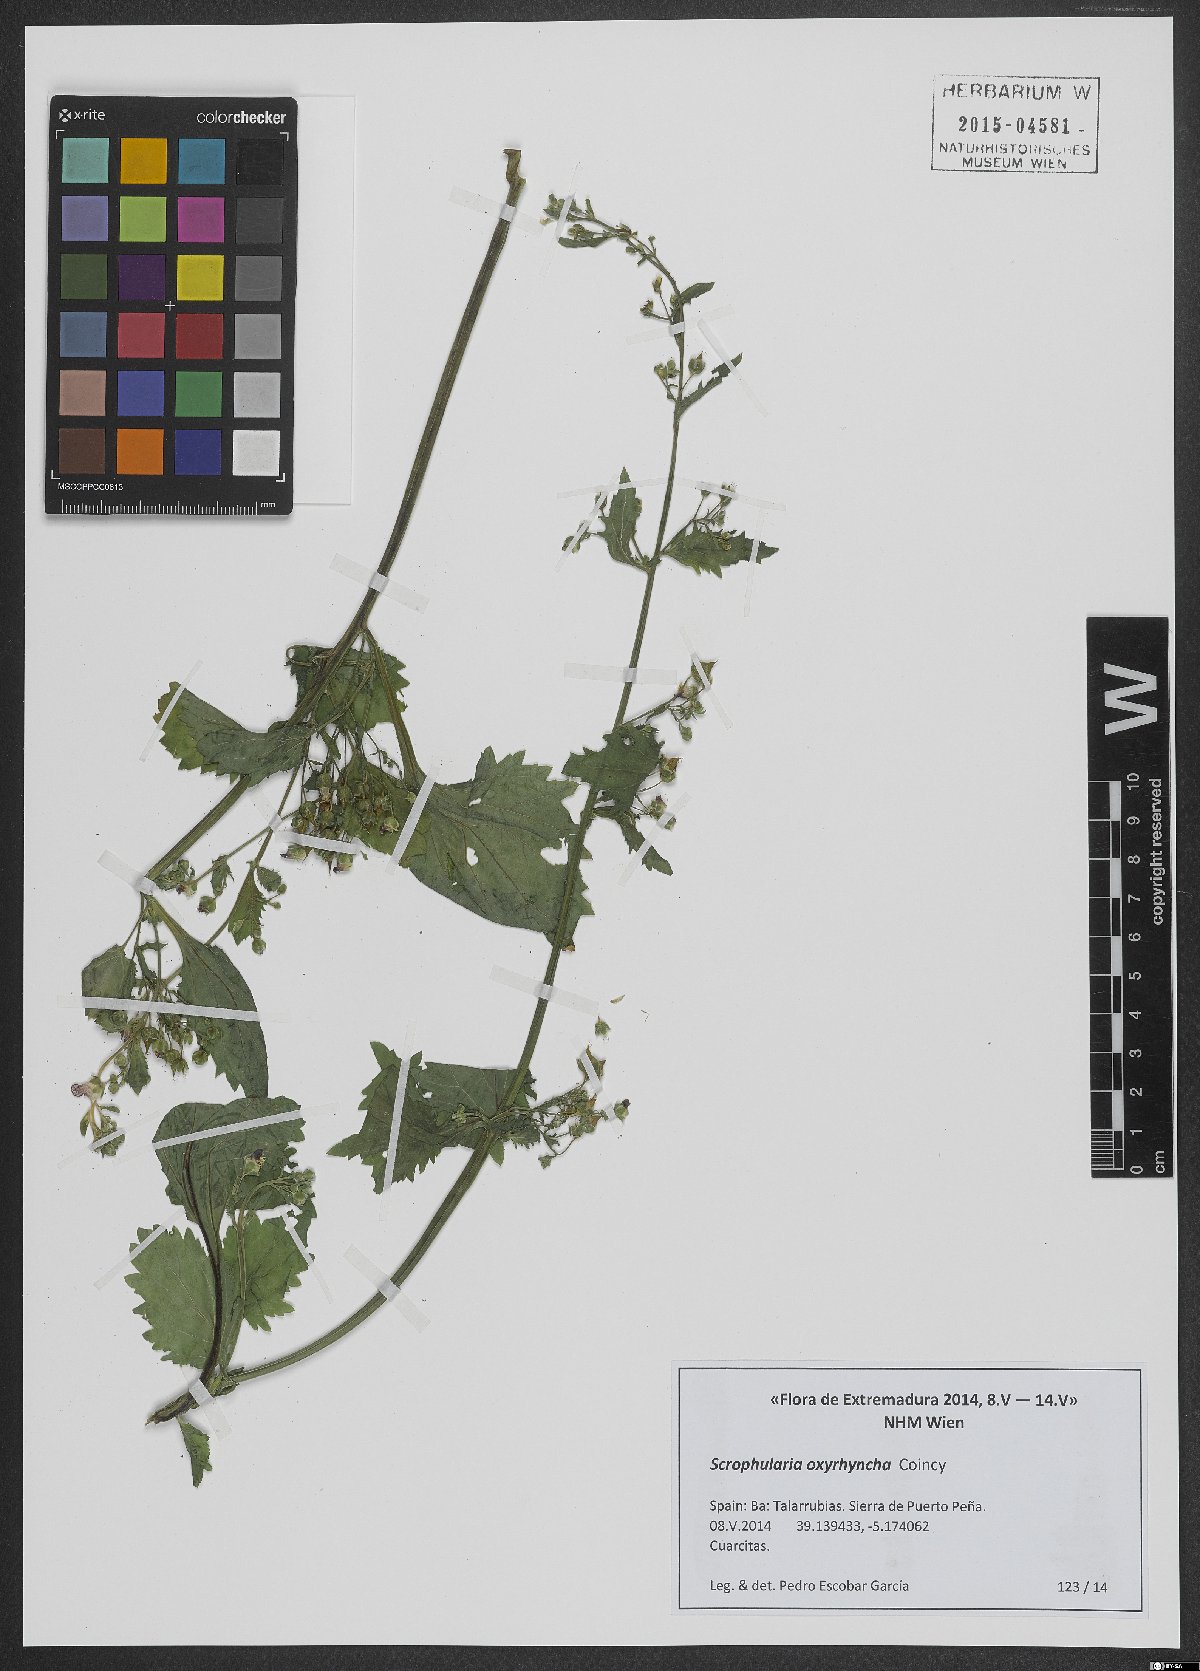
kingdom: Plantae
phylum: Tracheophyta
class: Magnoliopsida
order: Lamiales
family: Scrophulariaceae
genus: Scrophularia
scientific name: Scrophularia oxyrhyncha
